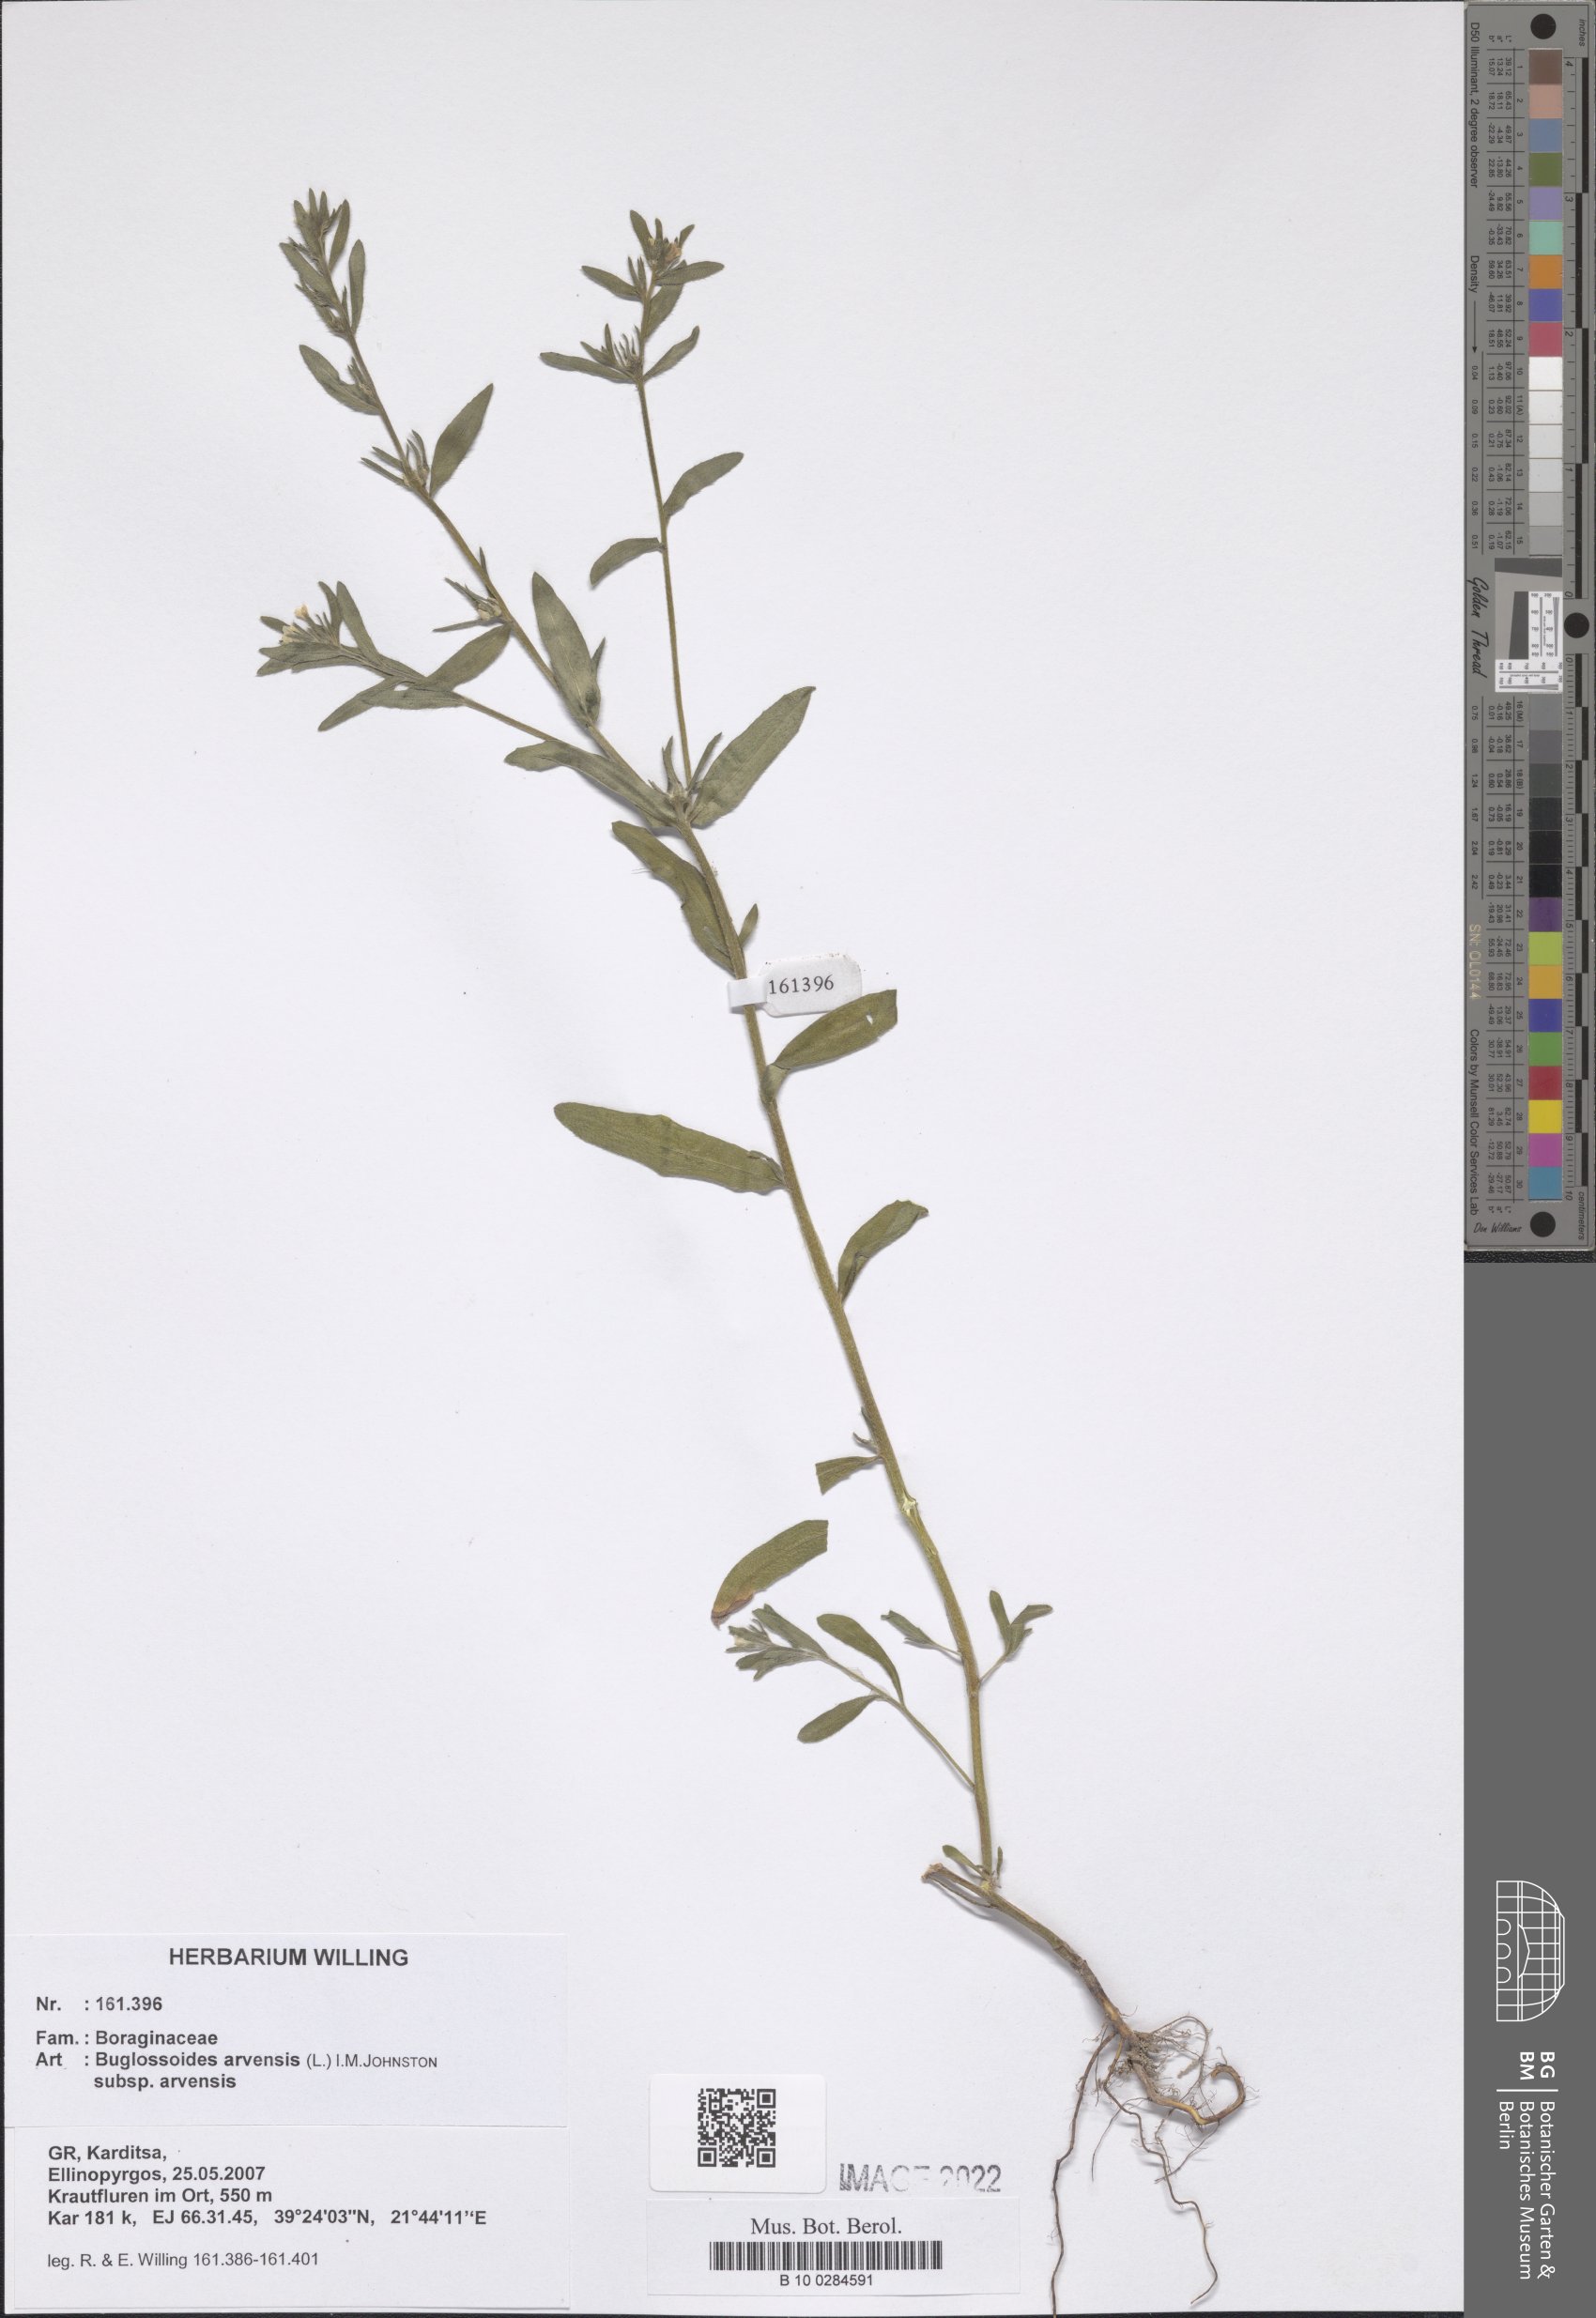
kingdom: Plantae
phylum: Tracheophyta
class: Magnoliopsida
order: Boraginales
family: Boraginaceae
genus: Buglossoides
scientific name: Buglossoides arvensis
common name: Corn gromwell
